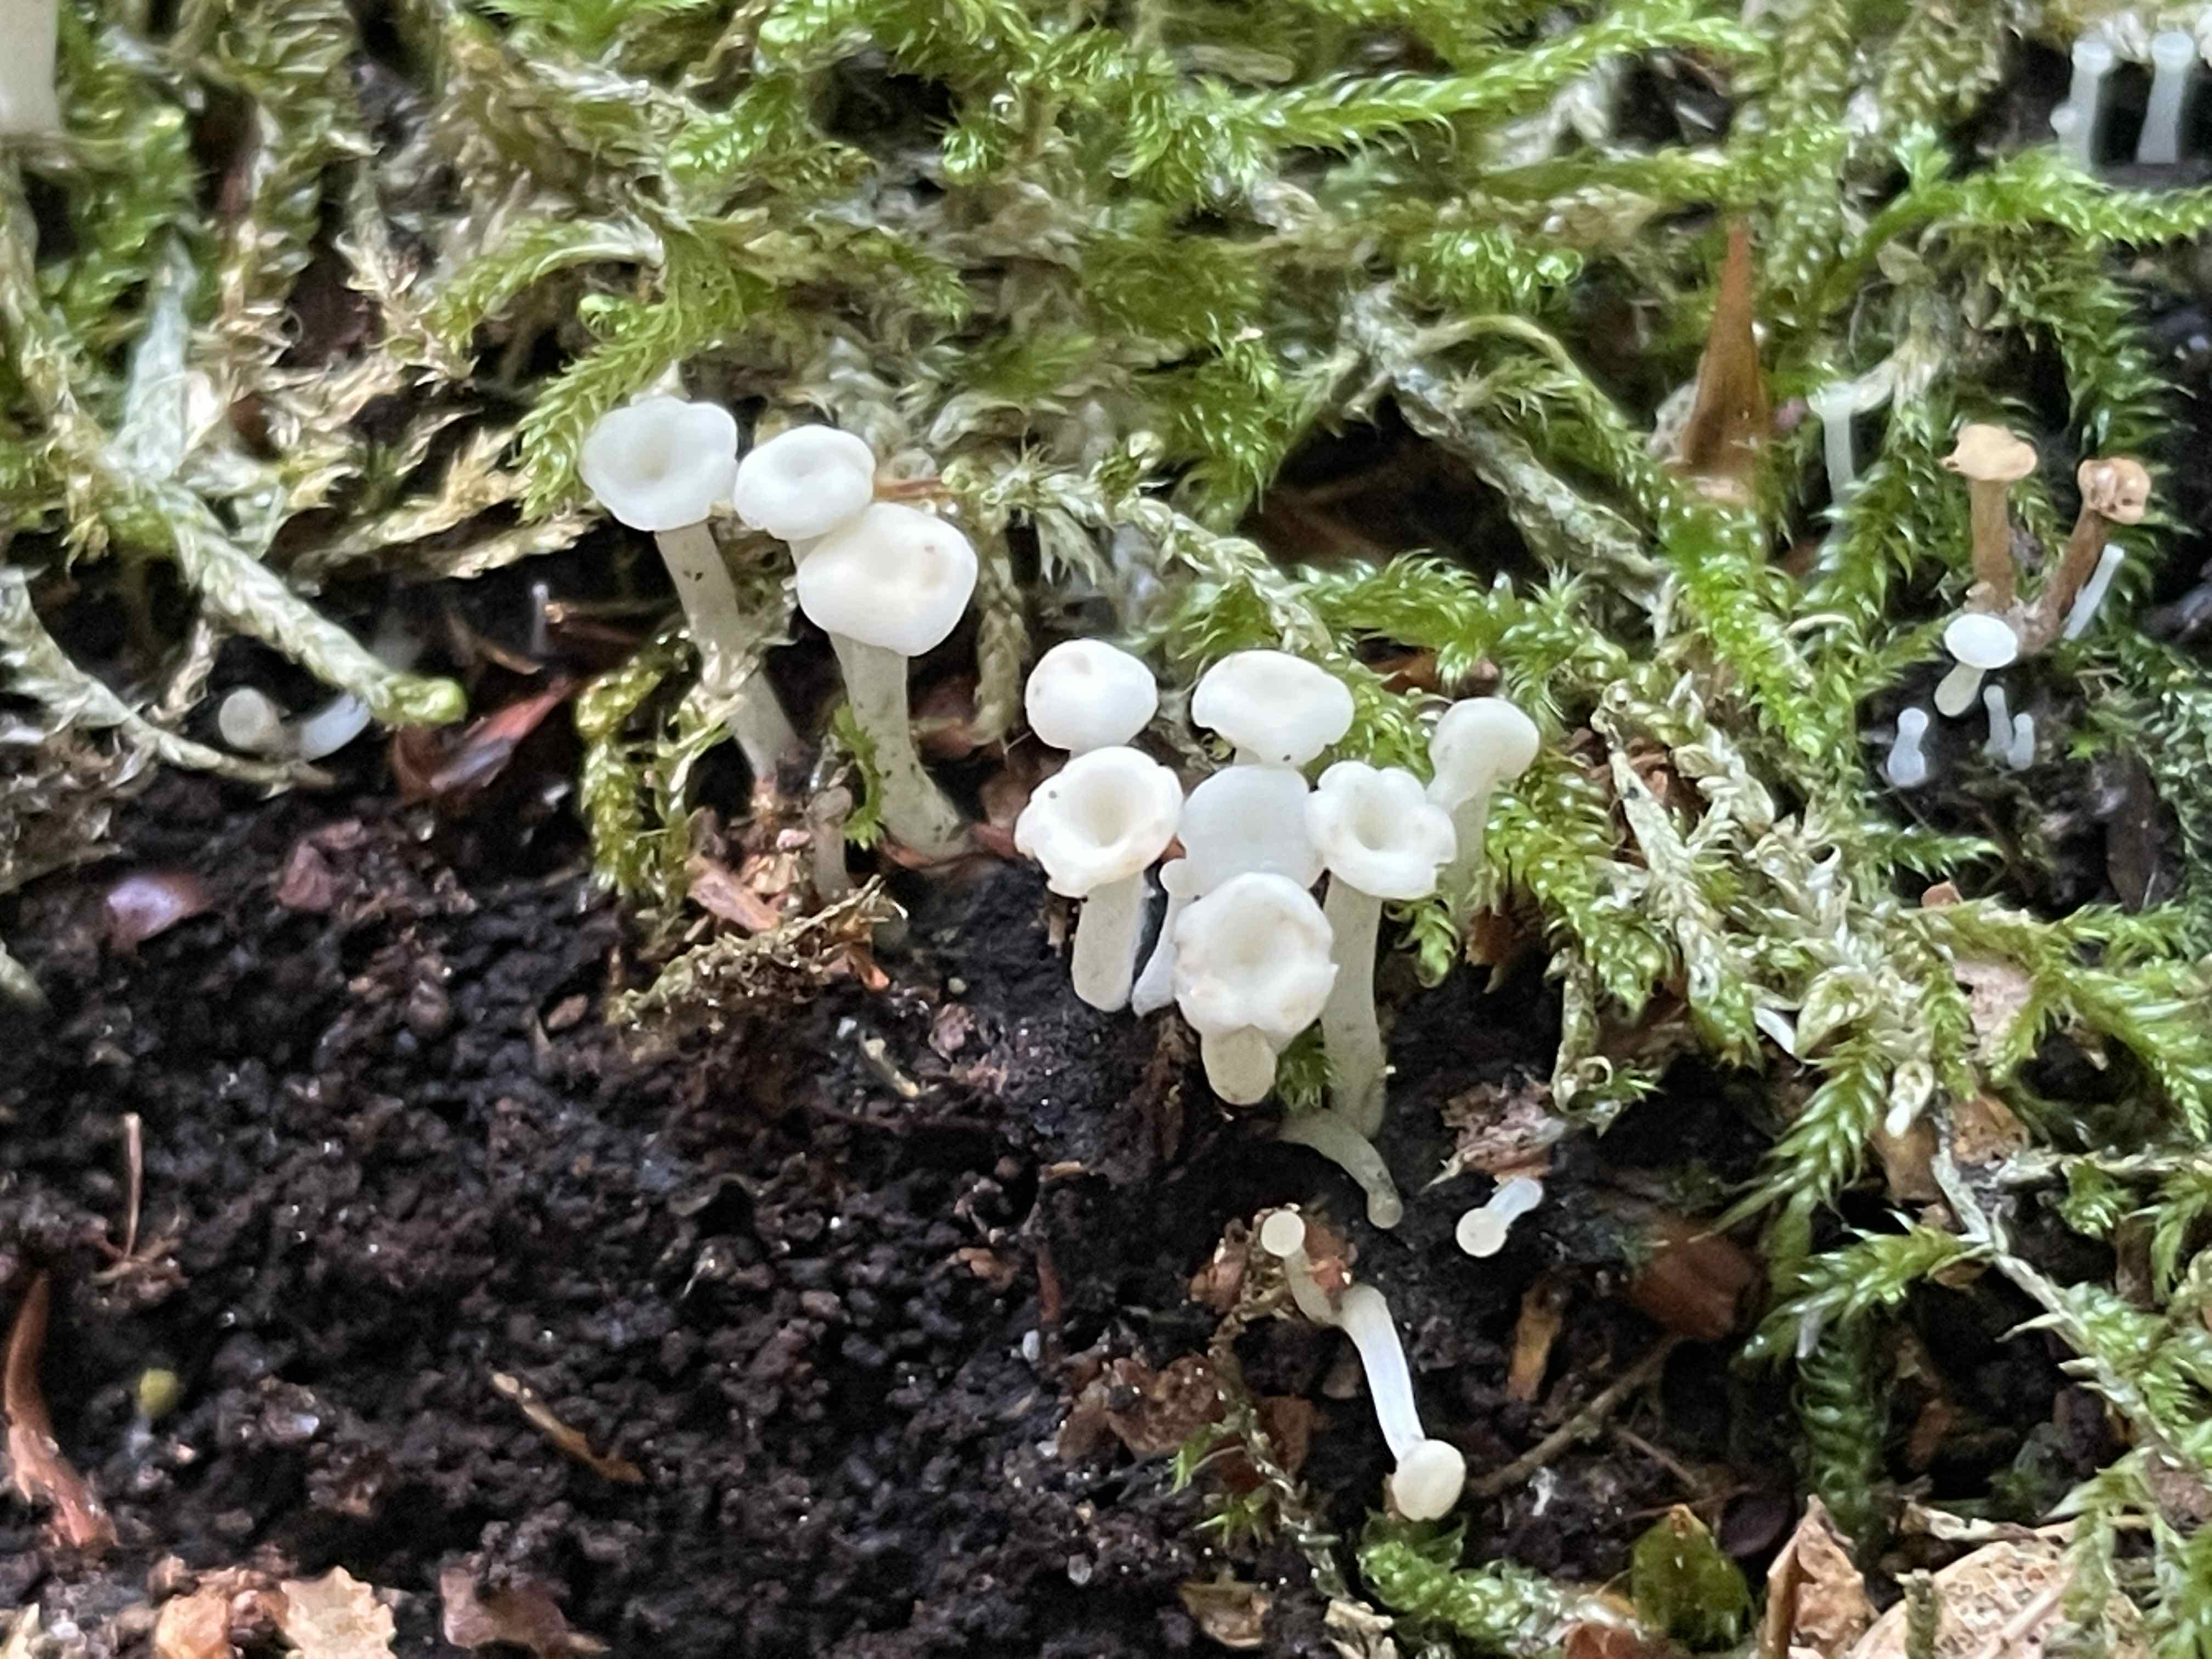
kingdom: Fungi
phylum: Ascomycota
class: Leotiomycetes
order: Helotiales
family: Tricladiaceae
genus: Cudoniella
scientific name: Cudoniella acicularis
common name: ege-dyndskive
